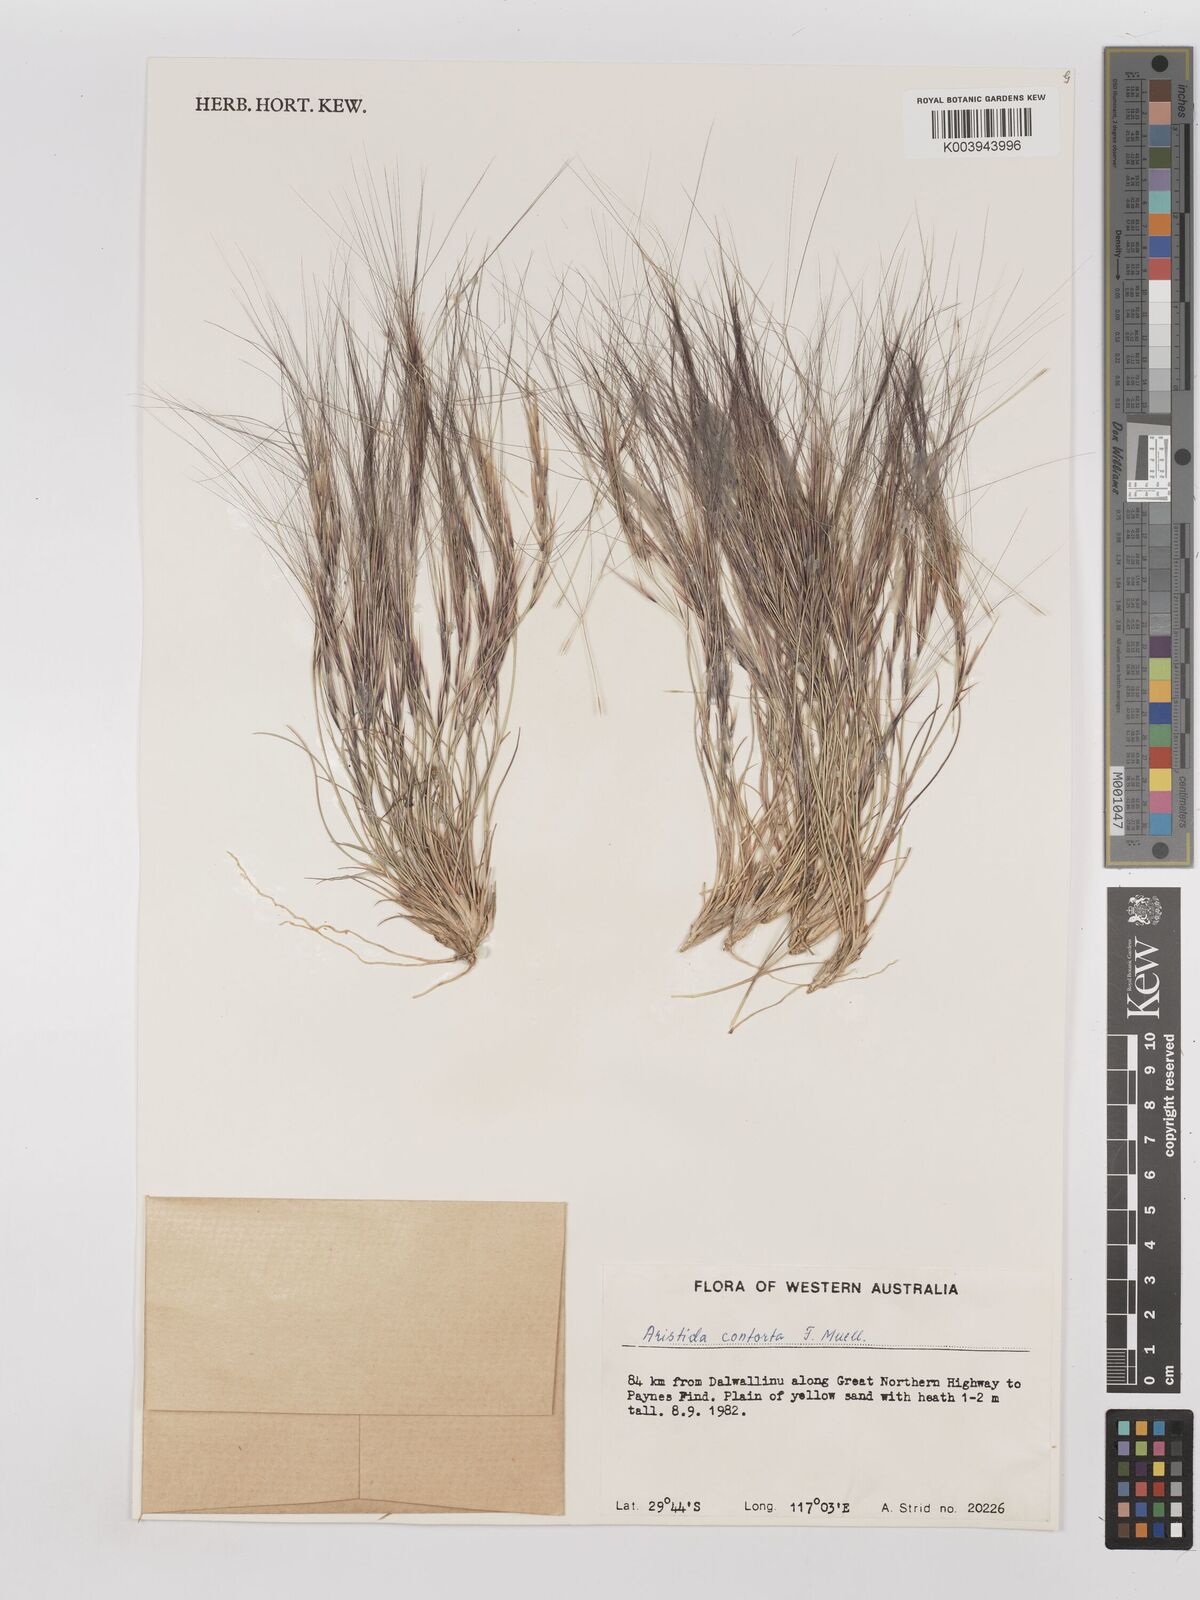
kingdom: Plantae
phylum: Tracheophyta
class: Liliopsida
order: Poales
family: Poaceae
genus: Aristida
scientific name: Aristida contorta
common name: Bunch kerosene grass
